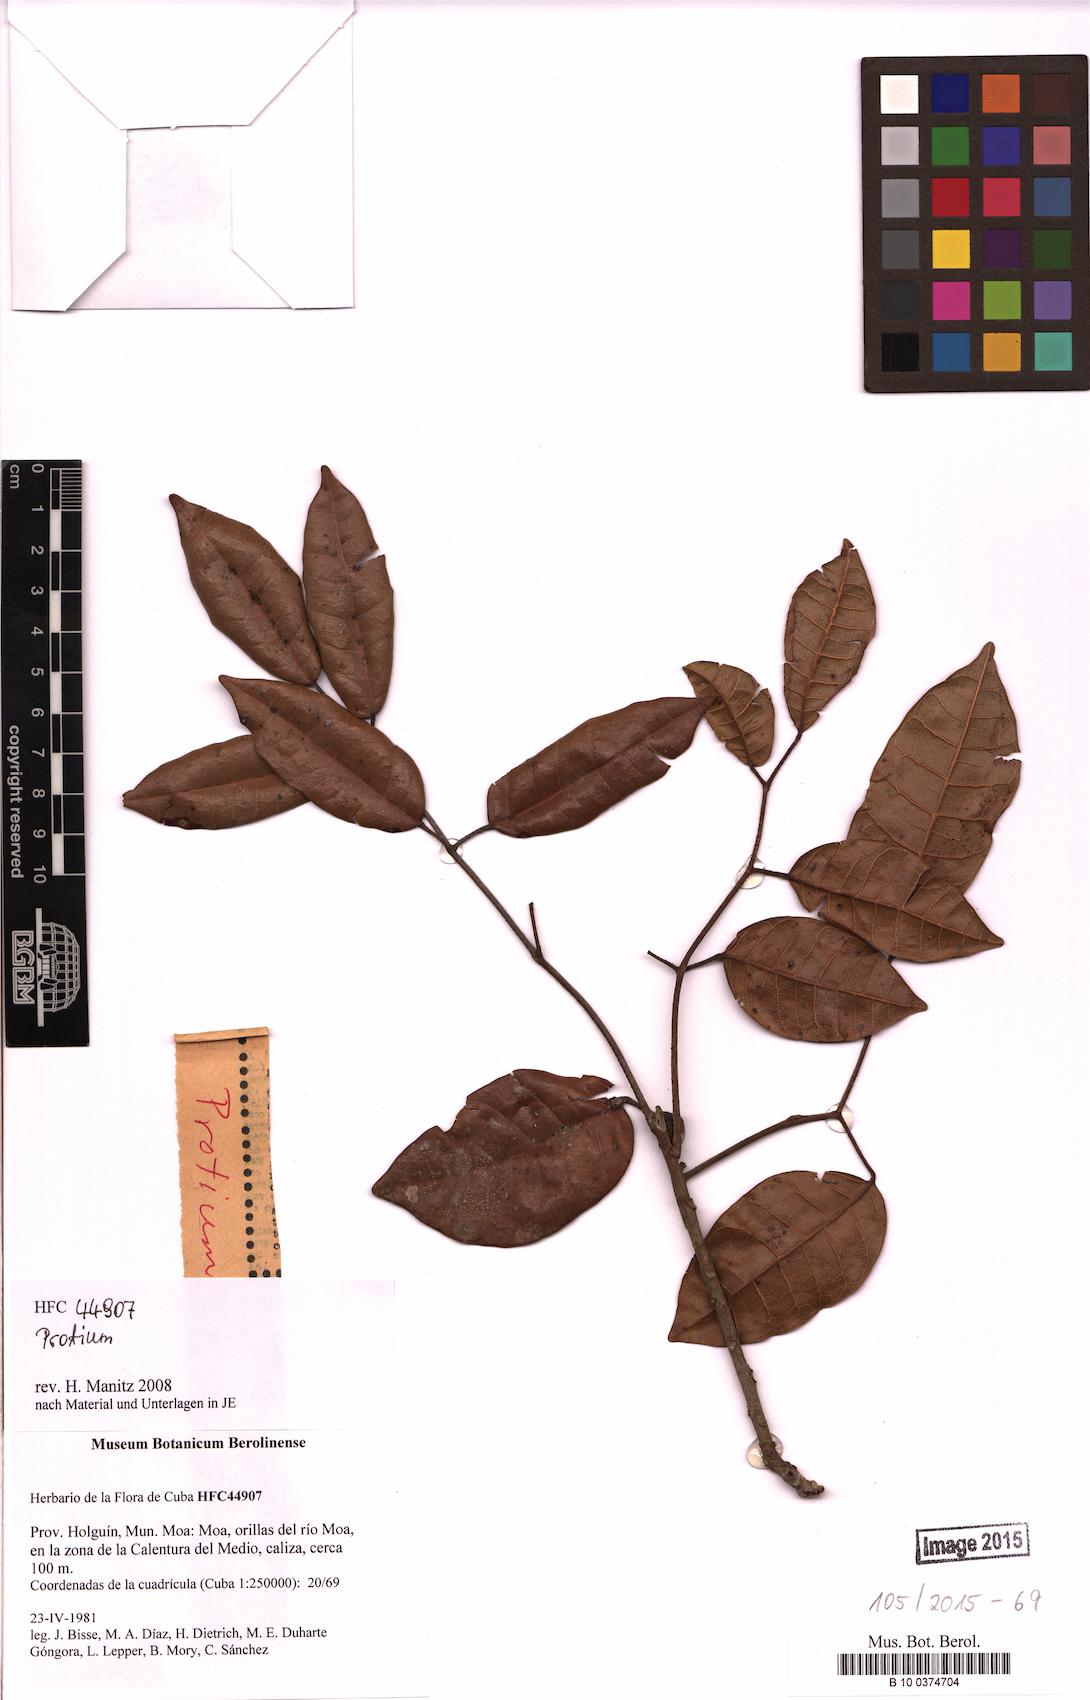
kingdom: Plantae
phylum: Tracheophyta
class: Magnoliopsida
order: Sapindales
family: Burseraceae
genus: Protium
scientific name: Protium
